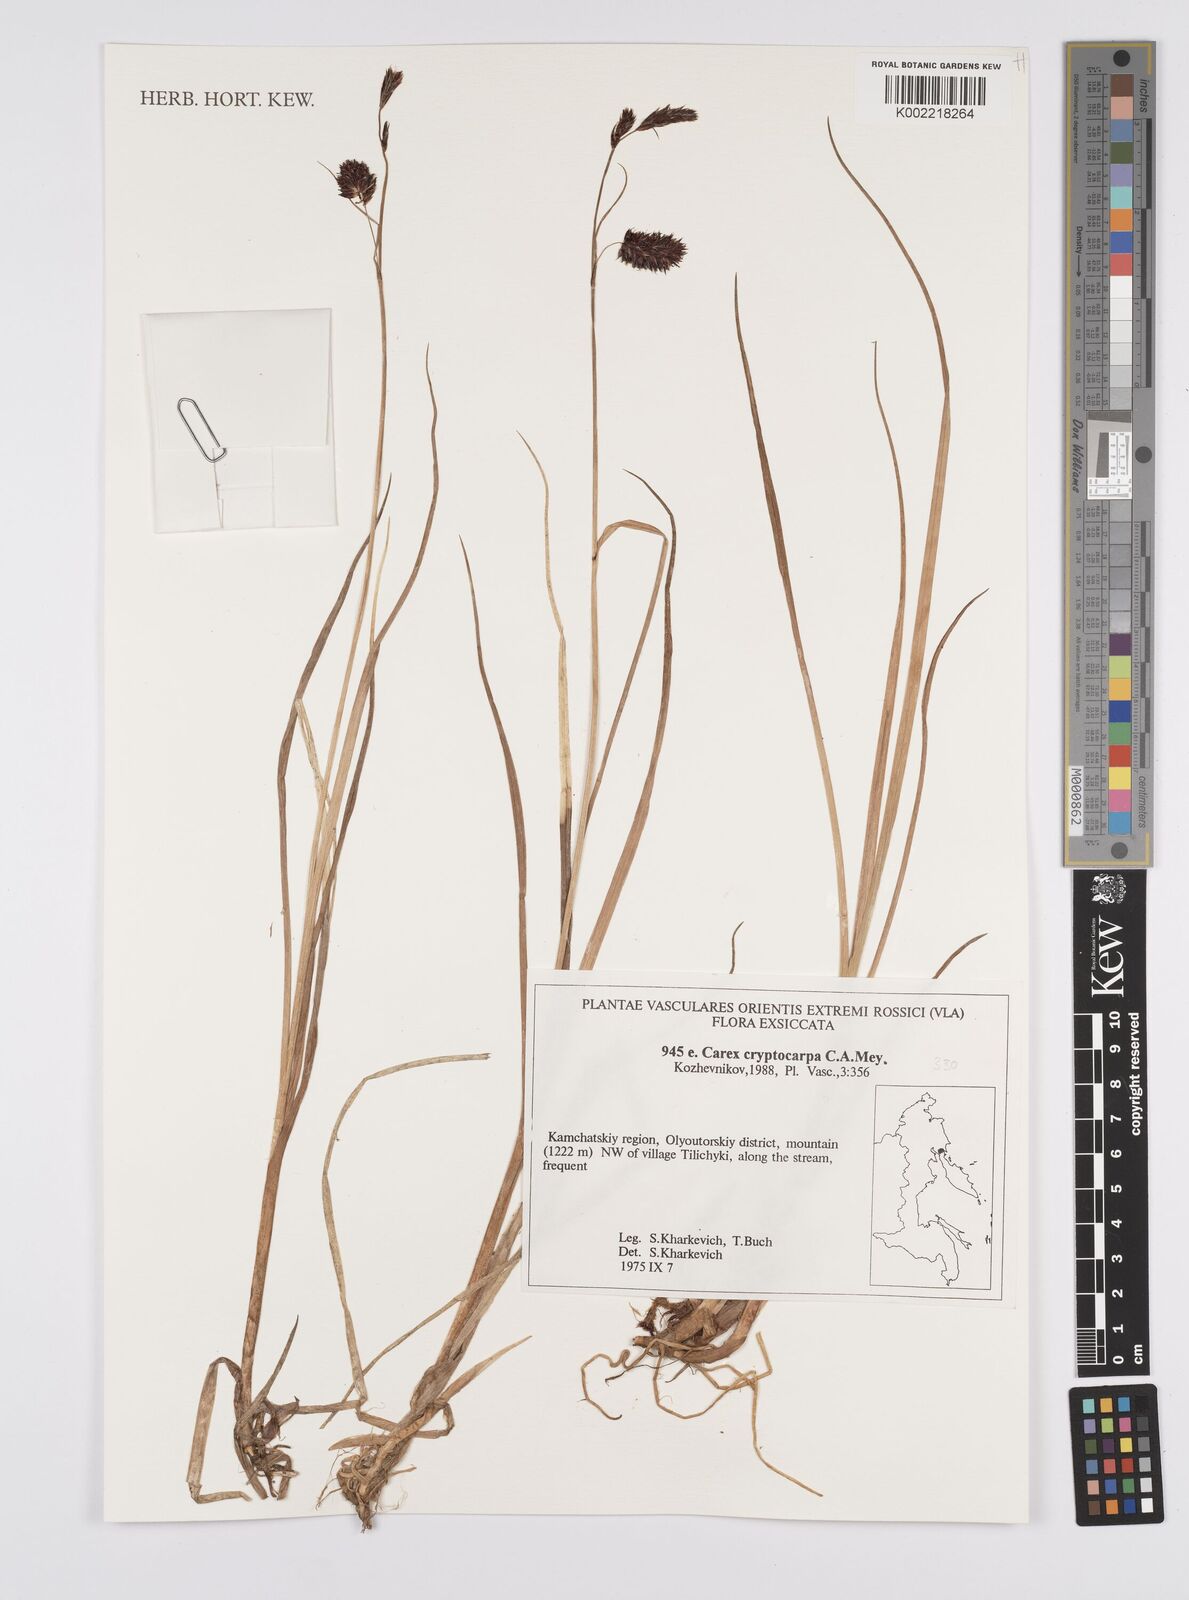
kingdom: Plantae
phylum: Tracheophyta
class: Liliopsida
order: Poales
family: Cyperaceae
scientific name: Cyperaceae
